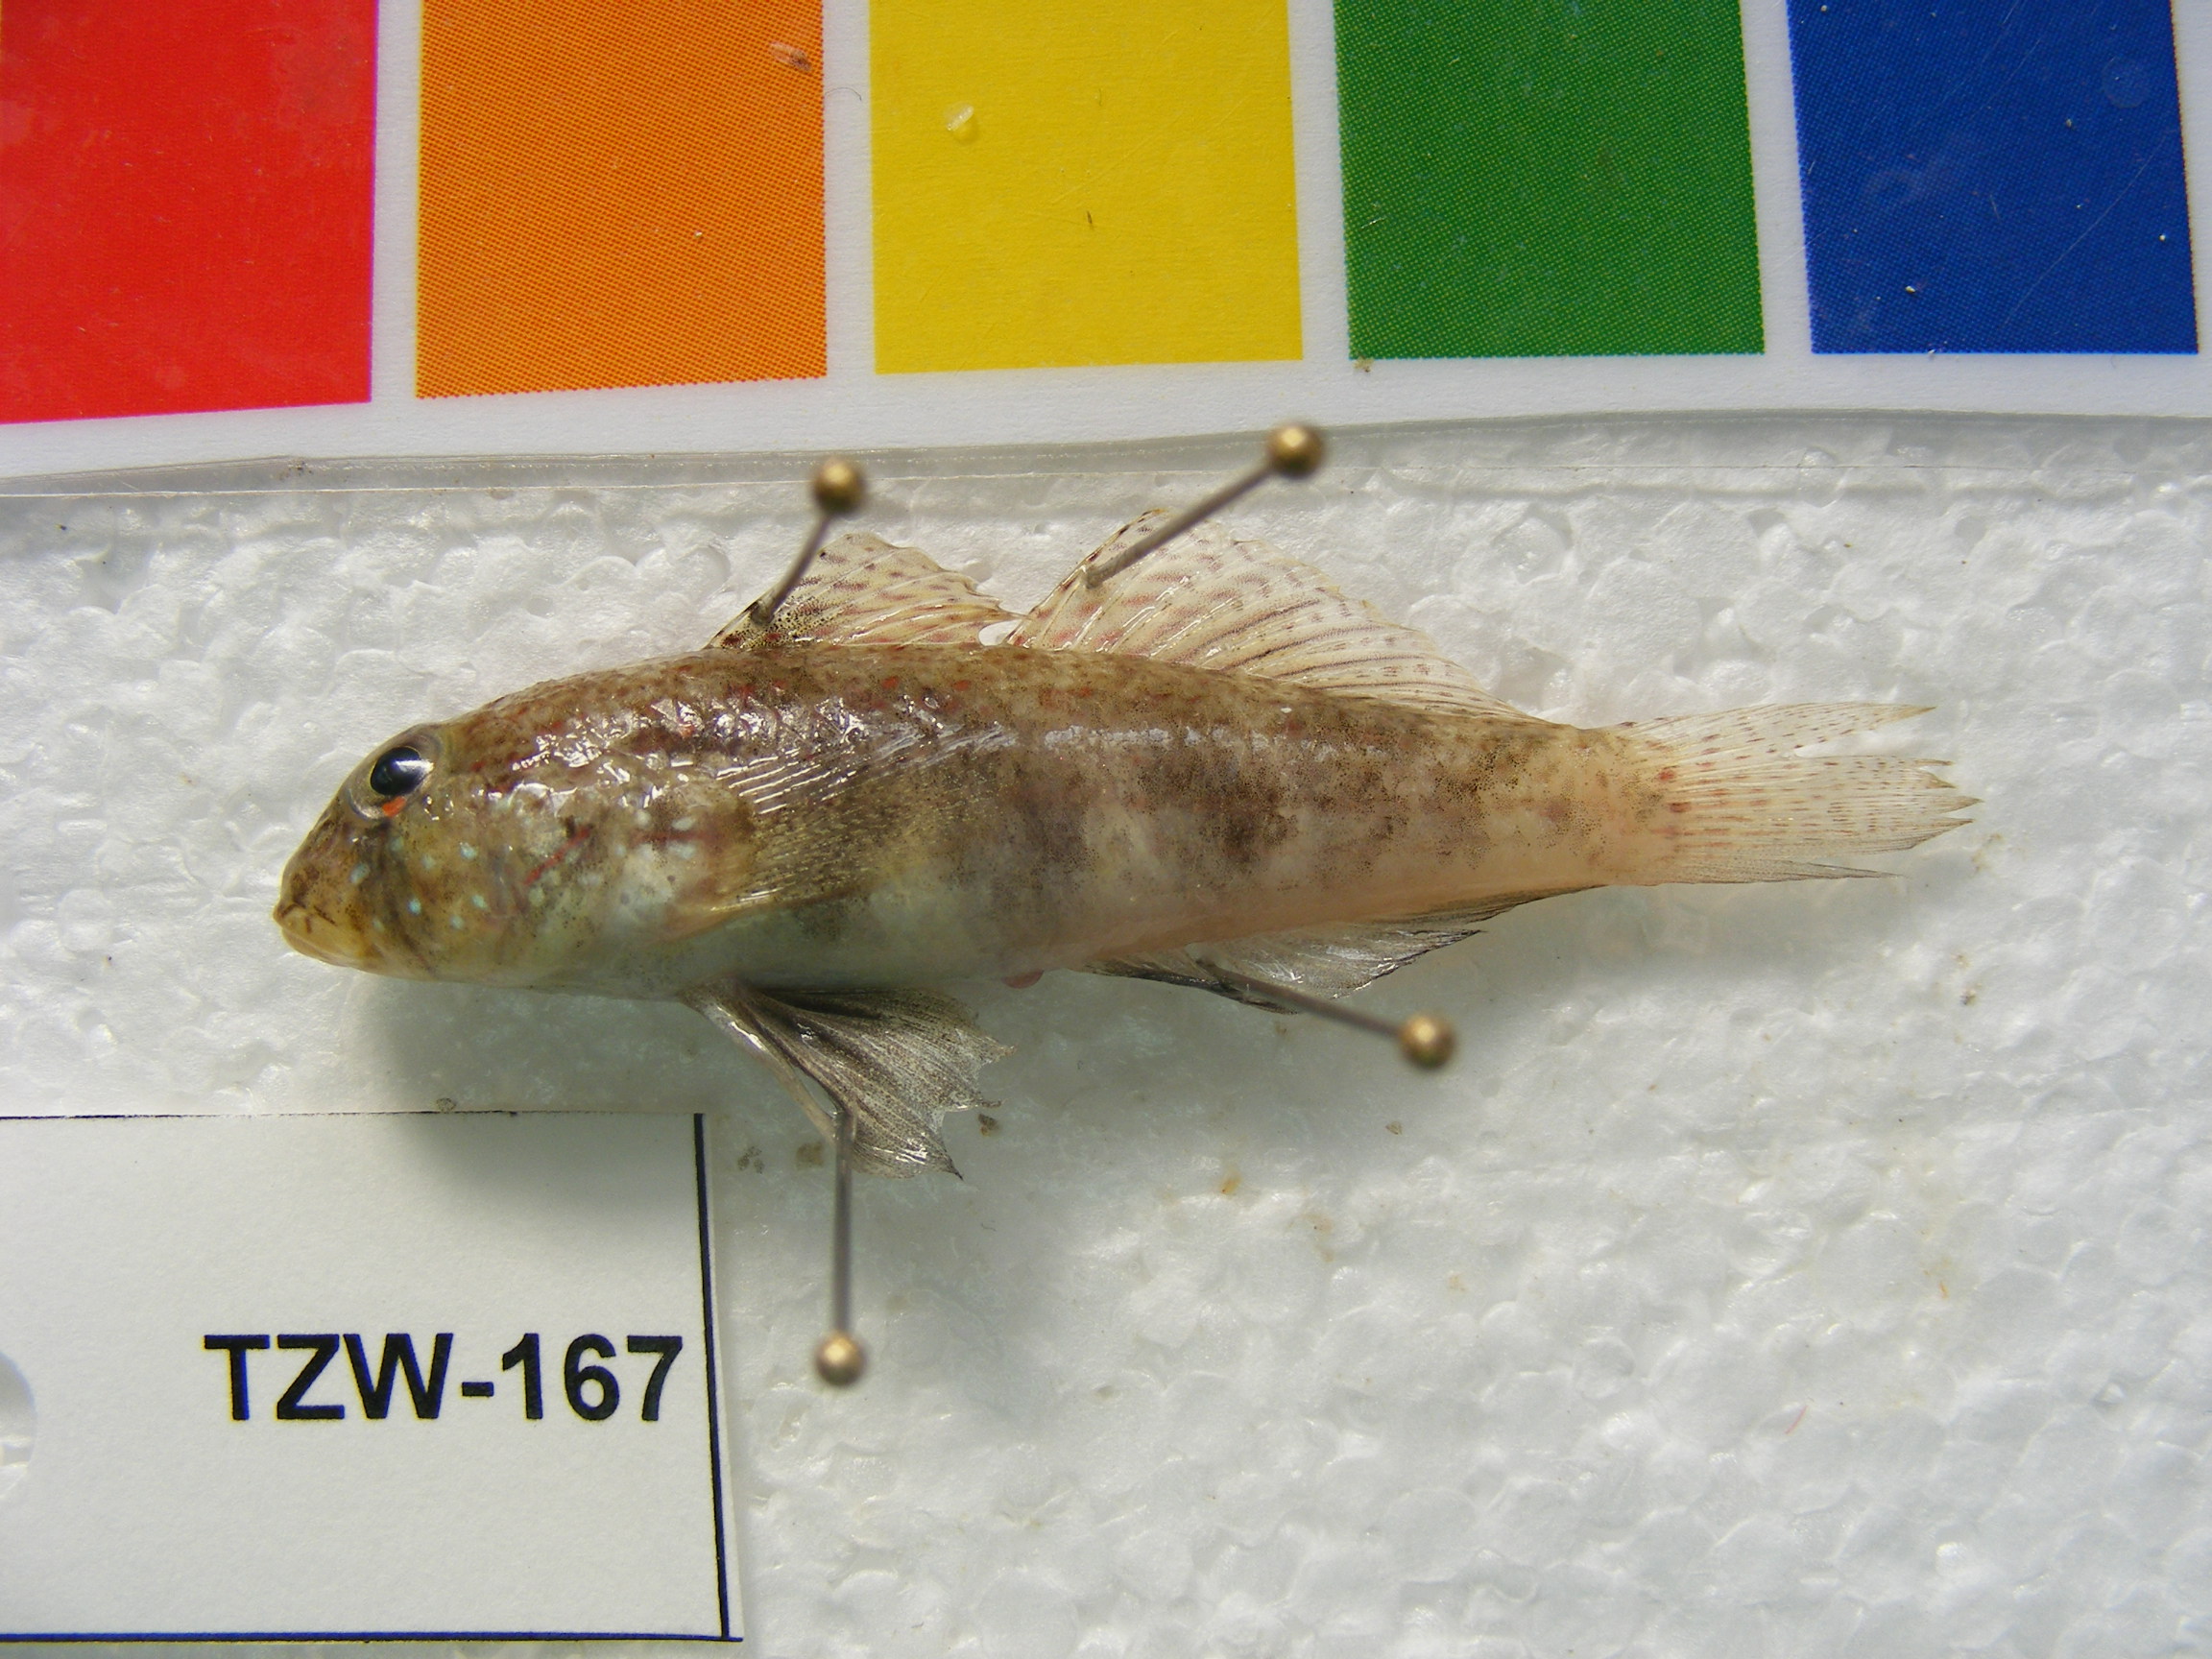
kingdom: Animalia
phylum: Chordata
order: Perciformes
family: Gobiidae
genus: Gnatholepis
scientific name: Gnatholepis cauerensis
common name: Bridled goby
